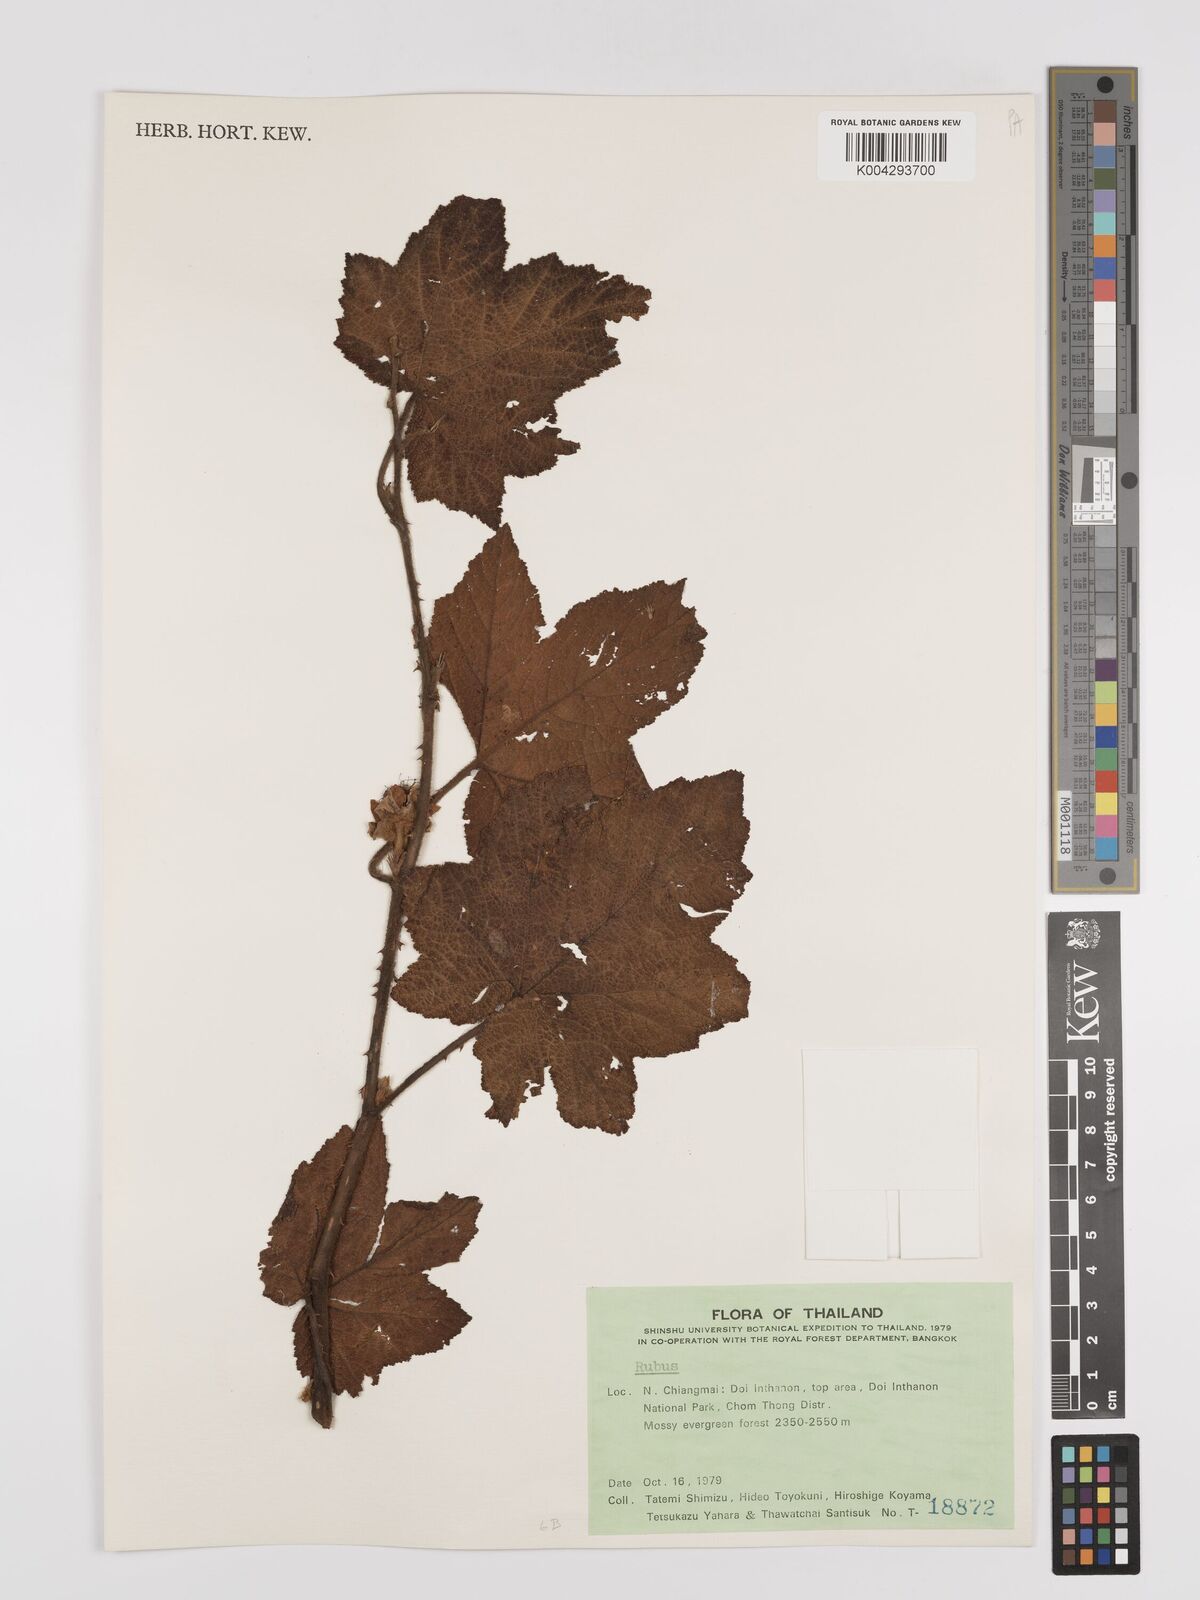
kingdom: Plantae
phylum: Tracheophyta
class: Magnoliopsida
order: Rosales
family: Rosaceae
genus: Rubus
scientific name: Rubus rufus
